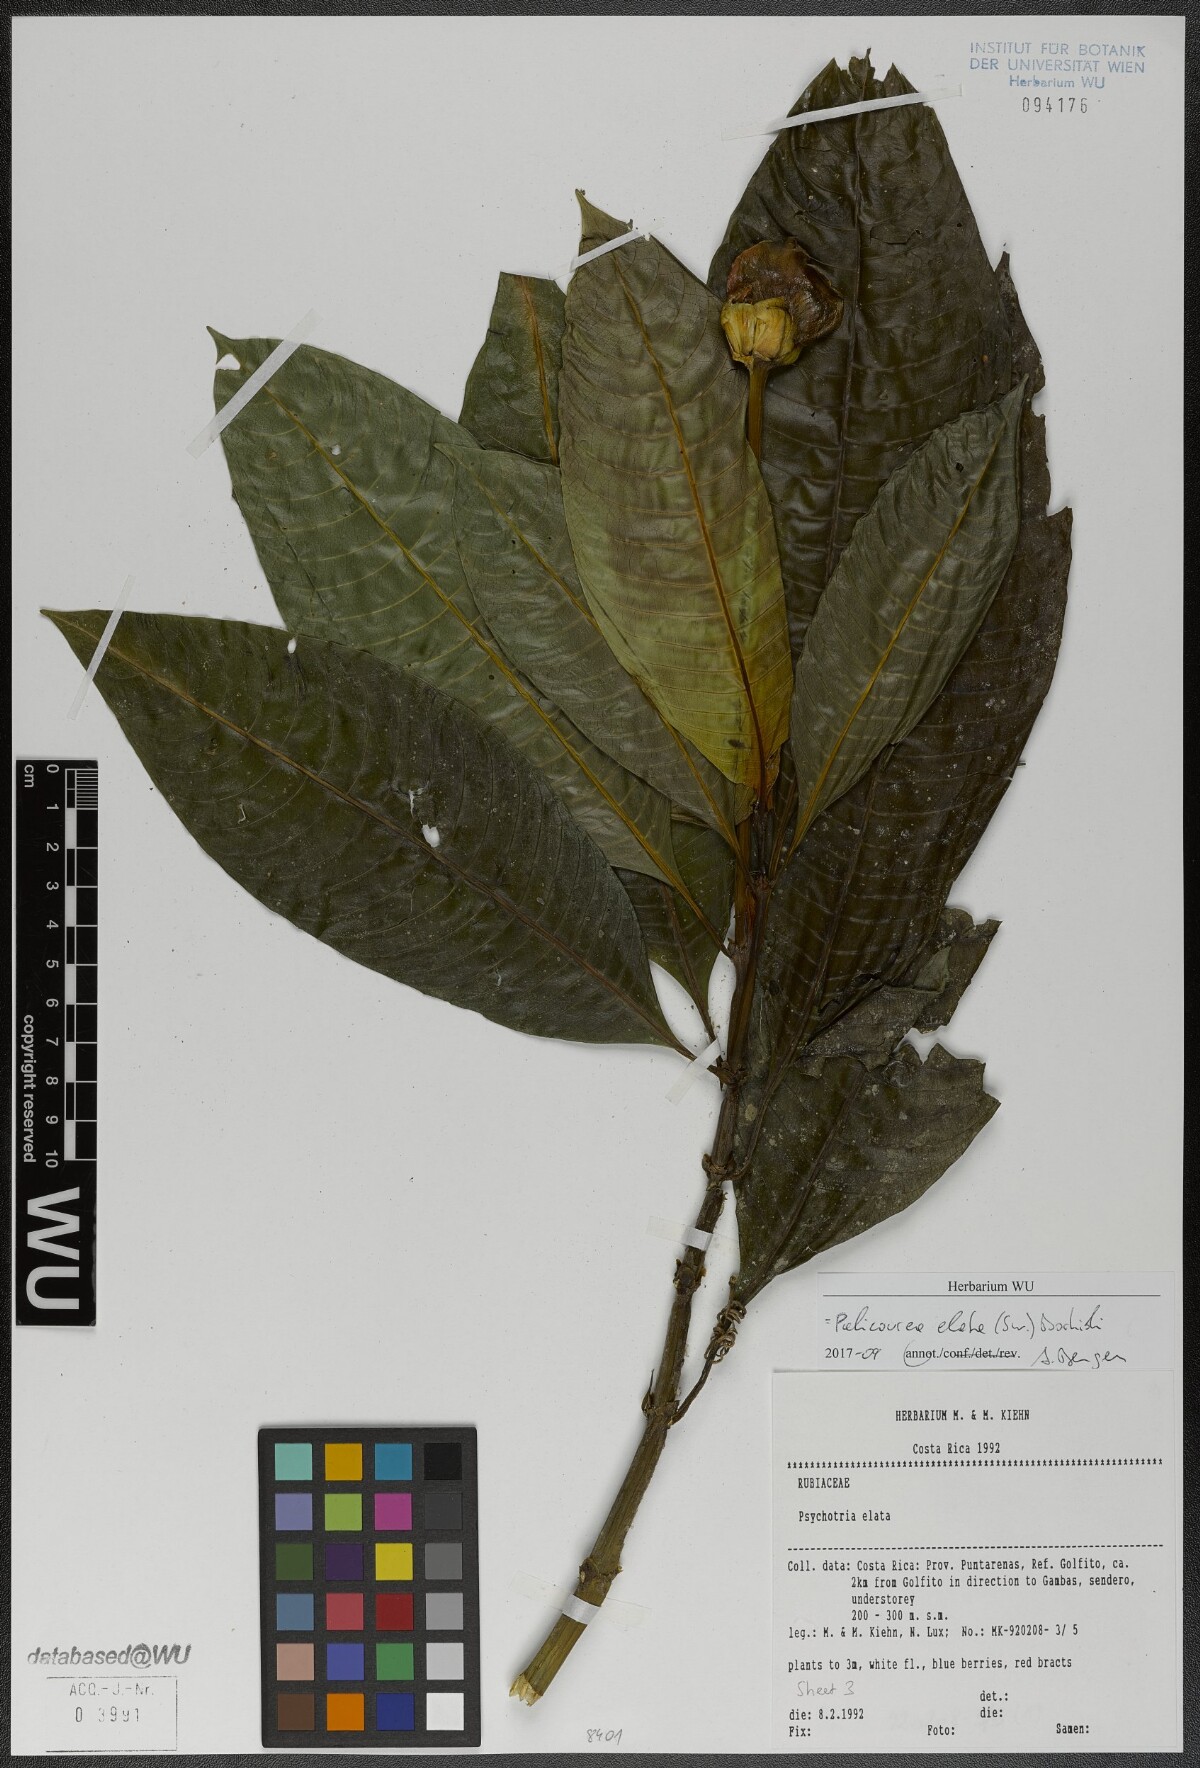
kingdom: Plantae
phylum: Tracheophyta
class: Magnoliopsida
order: Gentianales
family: Rubiaceae
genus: Palicourea
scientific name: Palicourea elata
